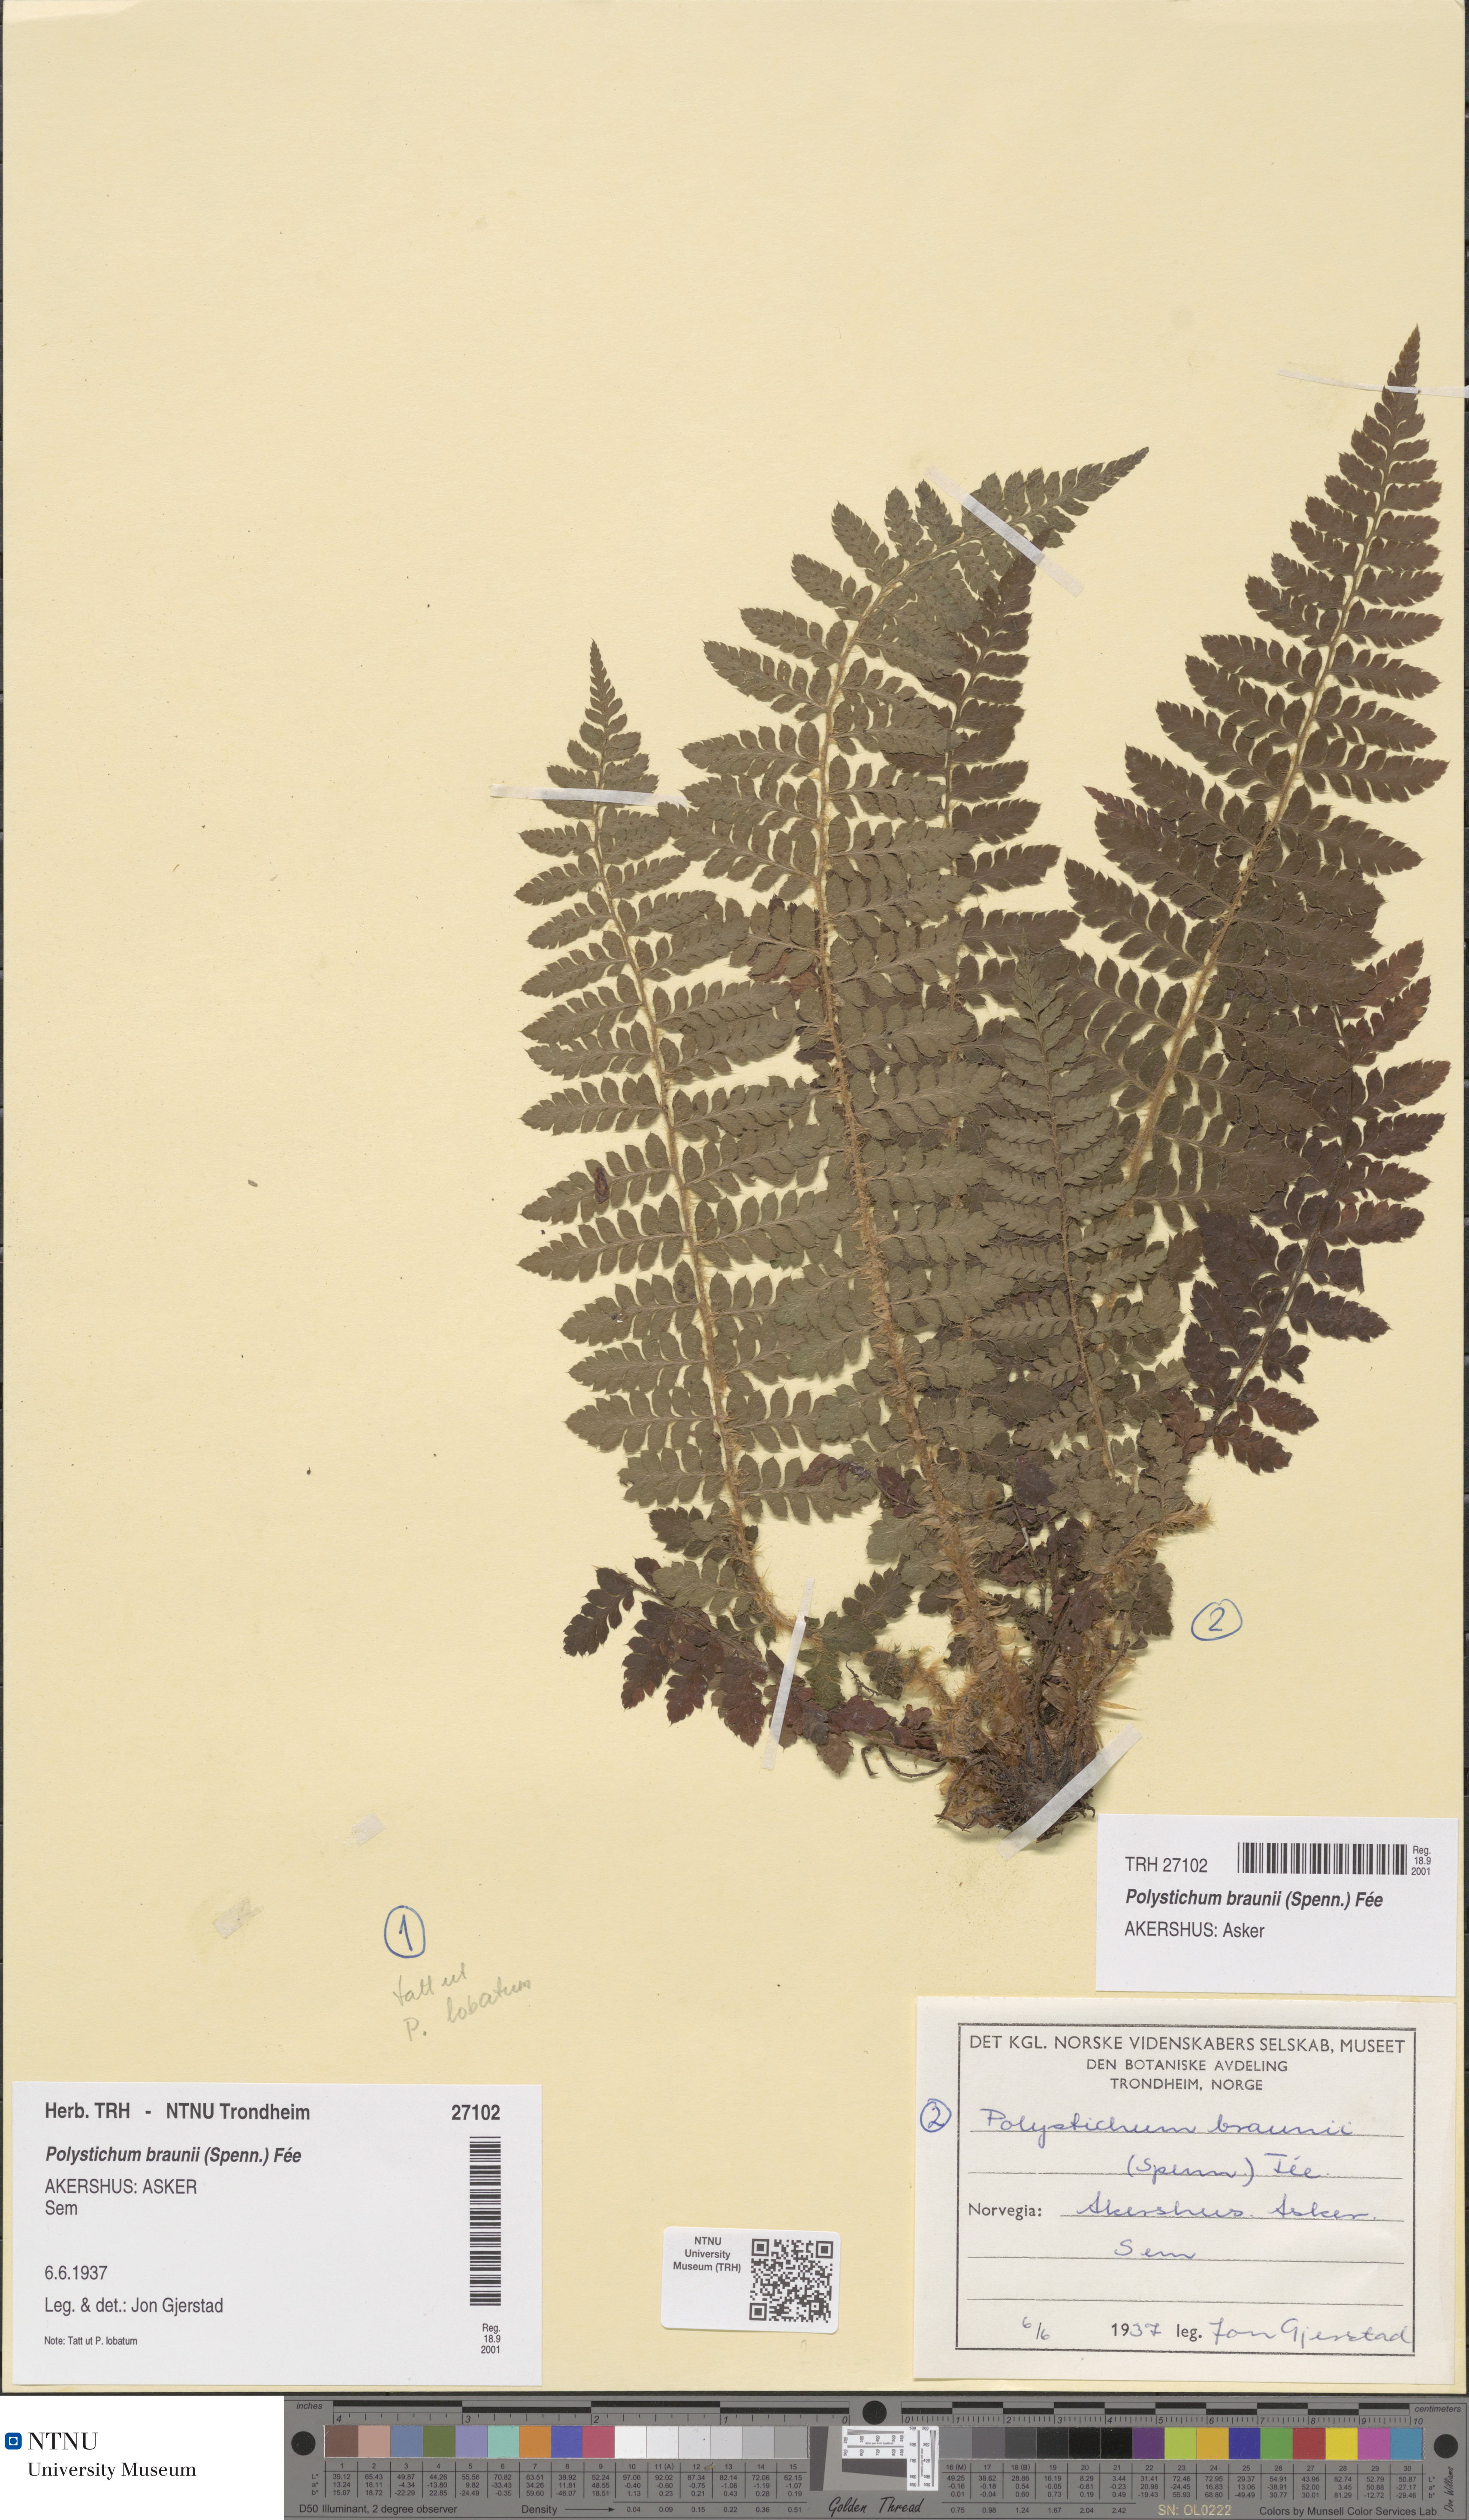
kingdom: Plantae
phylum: Tracheophyta
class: Polypodiopsida
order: Polypodiales
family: Dryopteridaceae
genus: Polystichum
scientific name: Polystichum braunii
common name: Braun's holly fern
